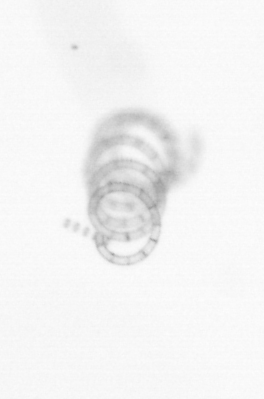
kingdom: Chromista
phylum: Ochrophyta
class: Bacillariophyceae
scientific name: Bacillariophyceae
